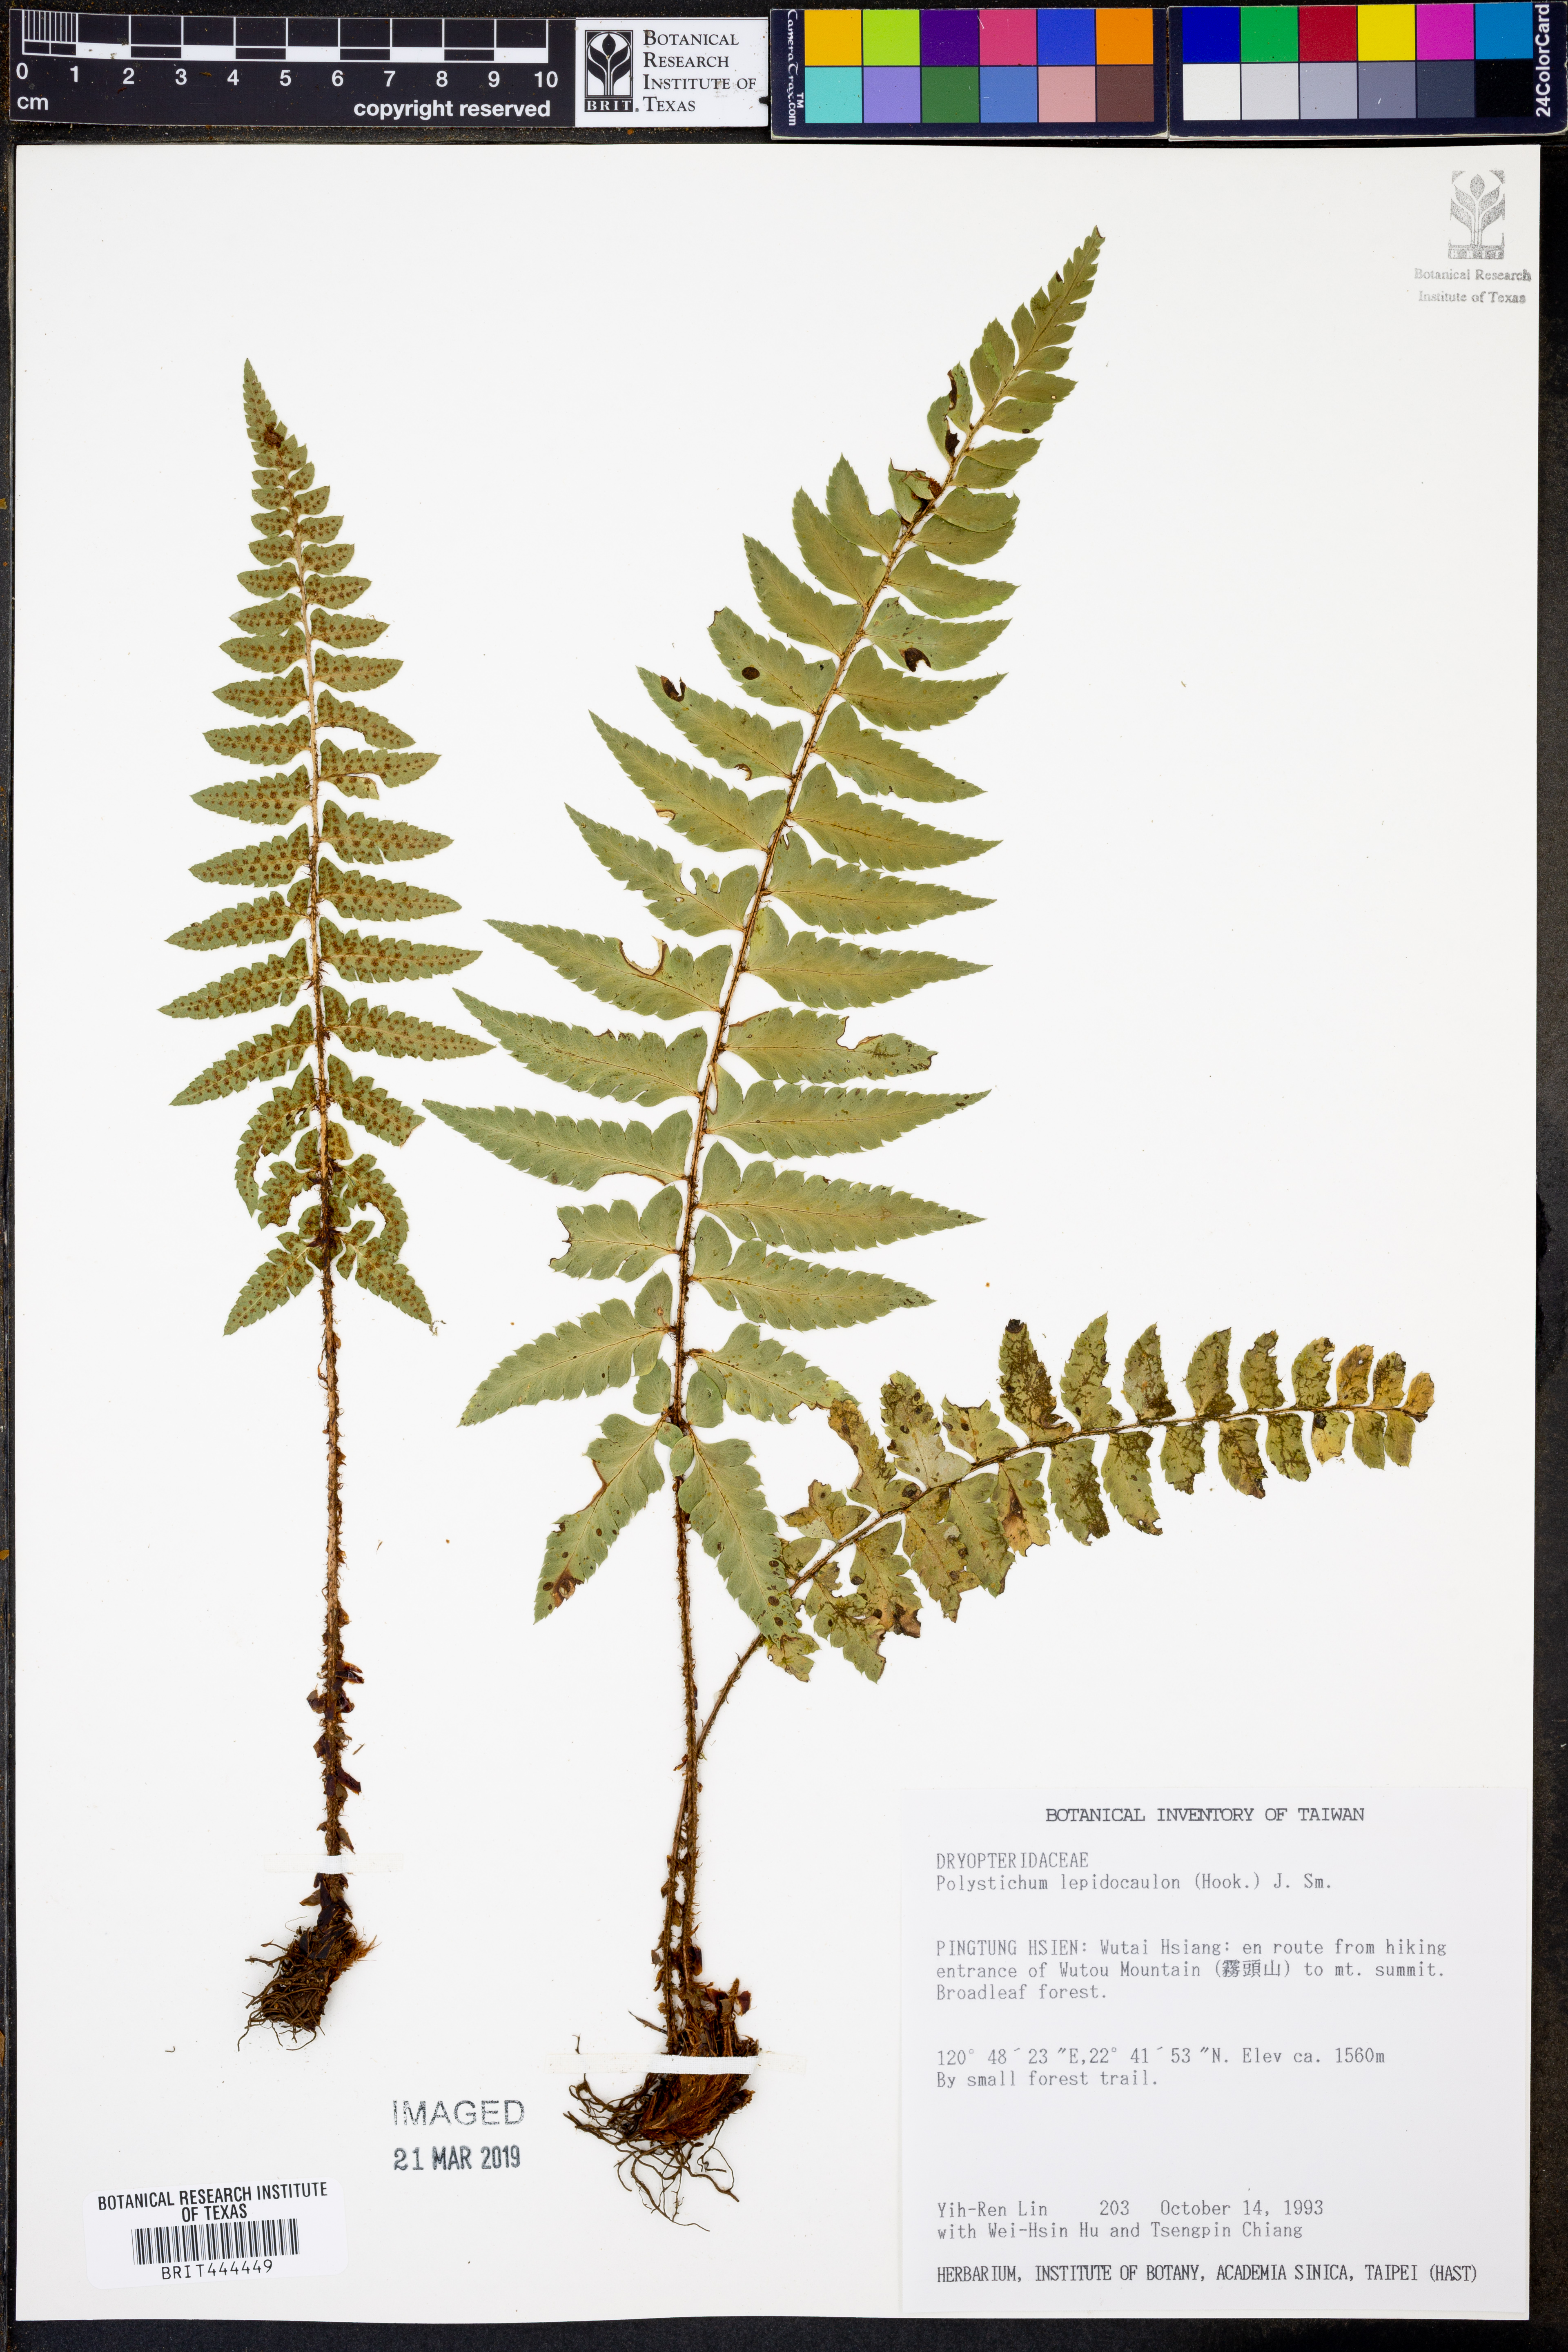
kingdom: Plantae
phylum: Tracheophyta
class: Polypodiopsida
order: Polypodiales
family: Dryopteridaceae
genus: Polystichum
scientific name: Polystichum lepidocaulon
